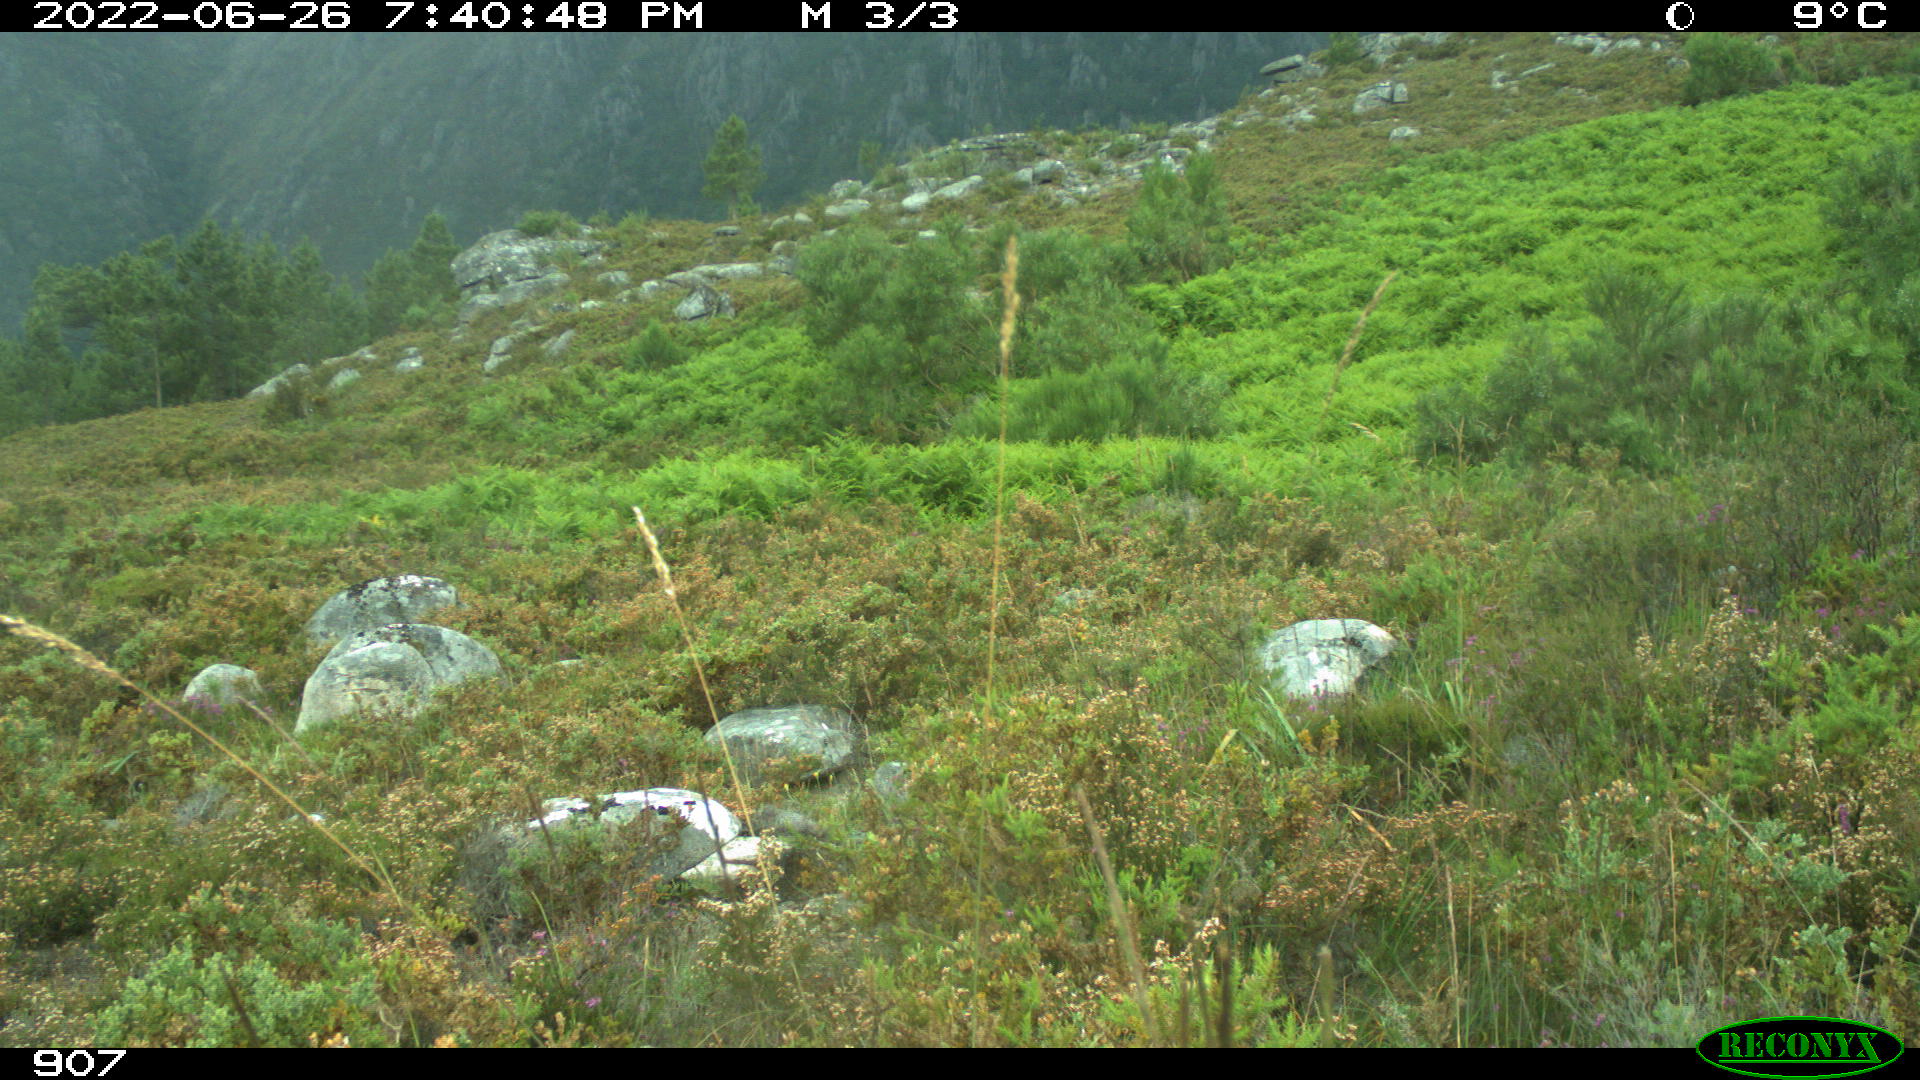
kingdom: Animalia
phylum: Chordata
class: Mammalia
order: Artiodactyla
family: Suidae
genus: Sus
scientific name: Sus scrofa
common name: Wild boar
